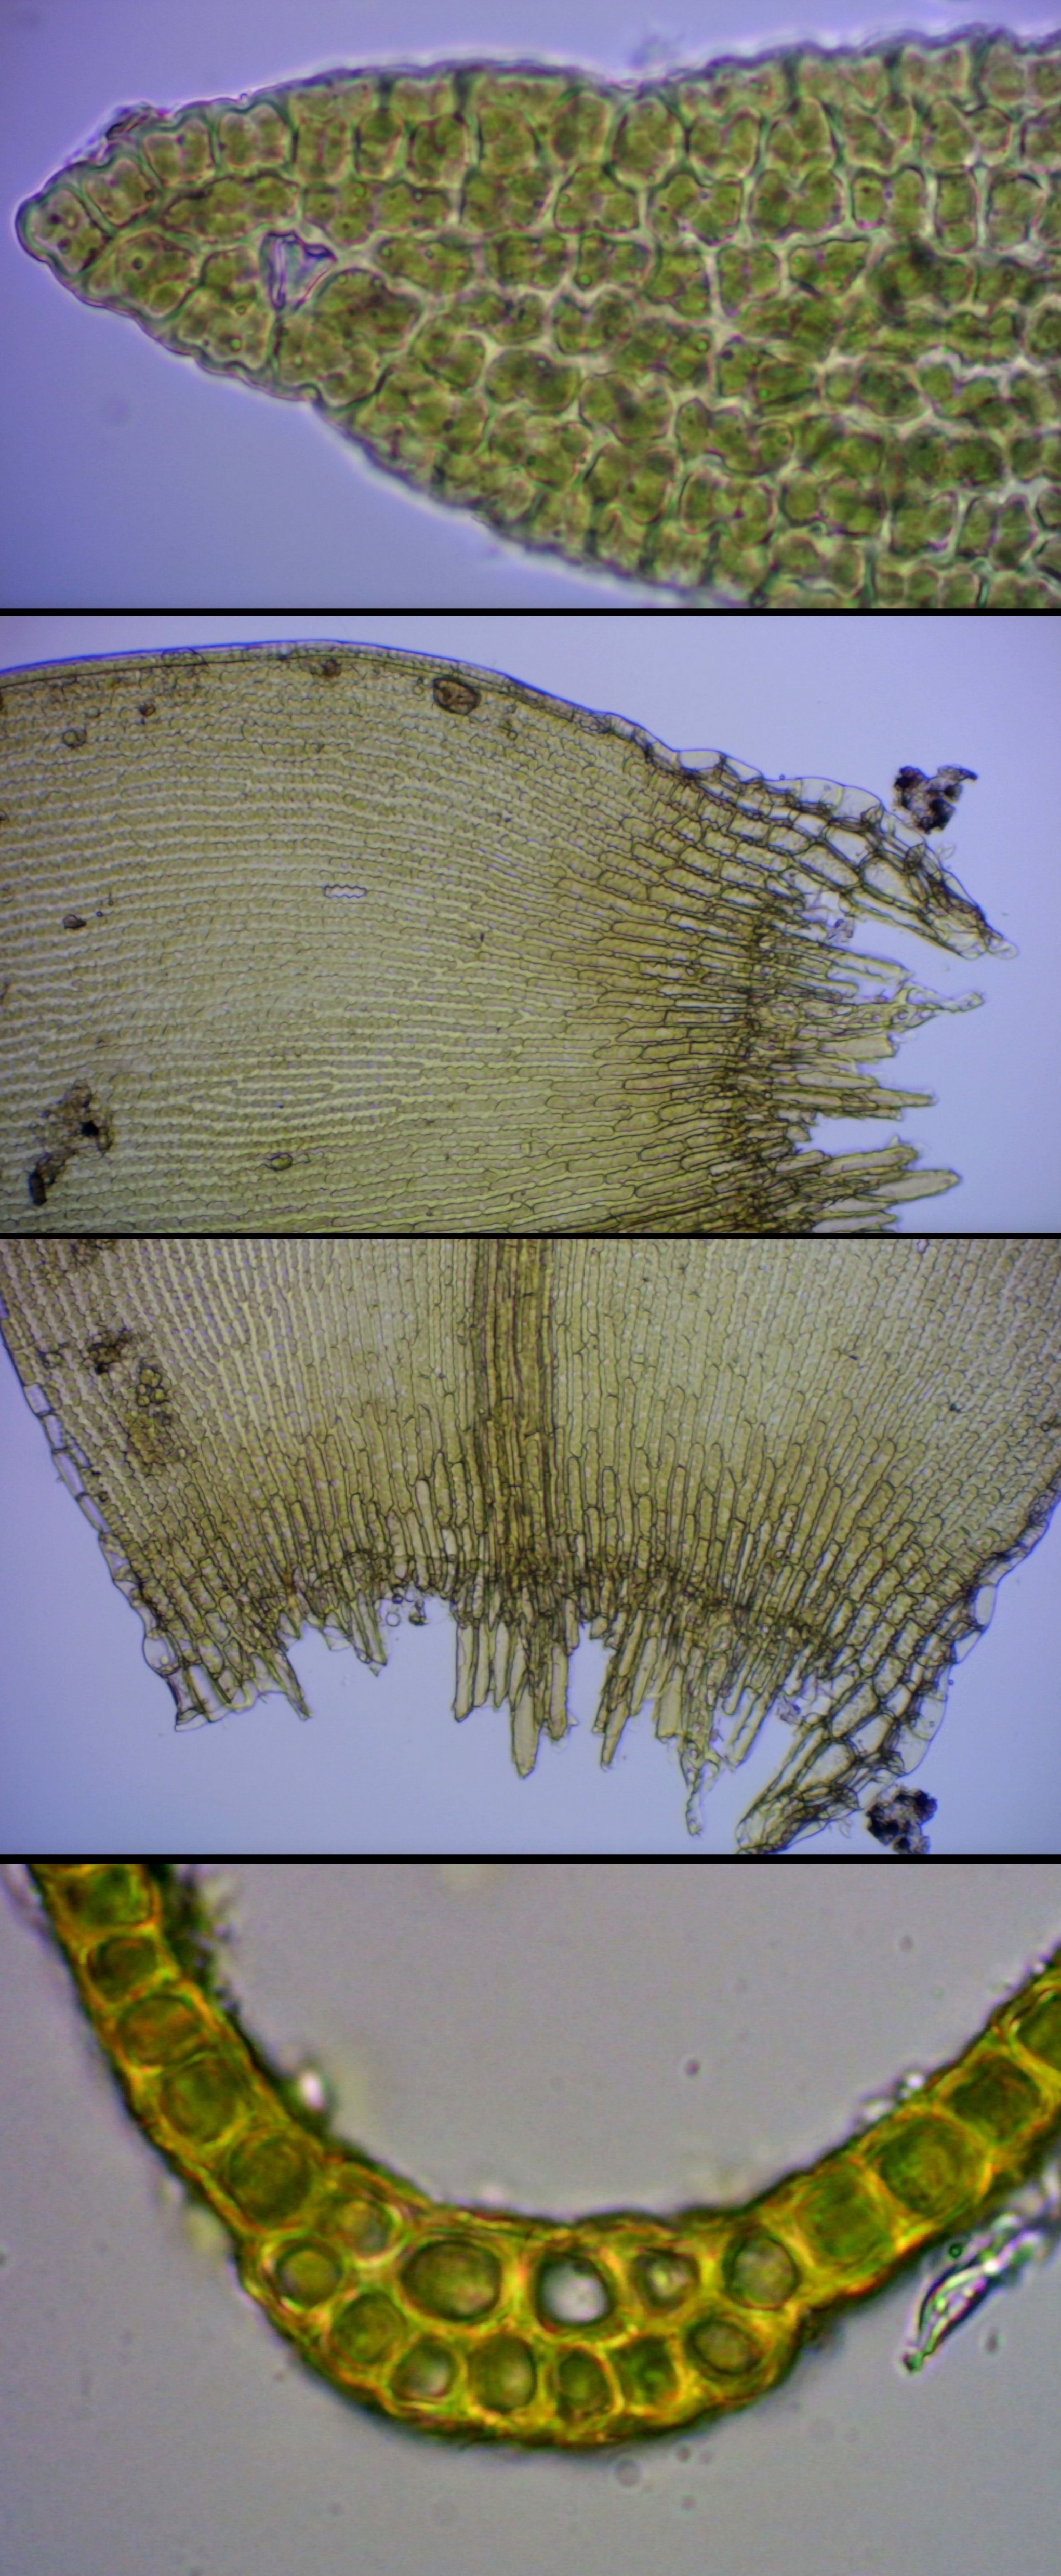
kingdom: Plantae
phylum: Bryophyta
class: Bryopsida
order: Grimmiales
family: Grimmiaceae
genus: Dilutineuron
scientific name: Dilutineuron fasciculare
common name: Knippe-børstemos
